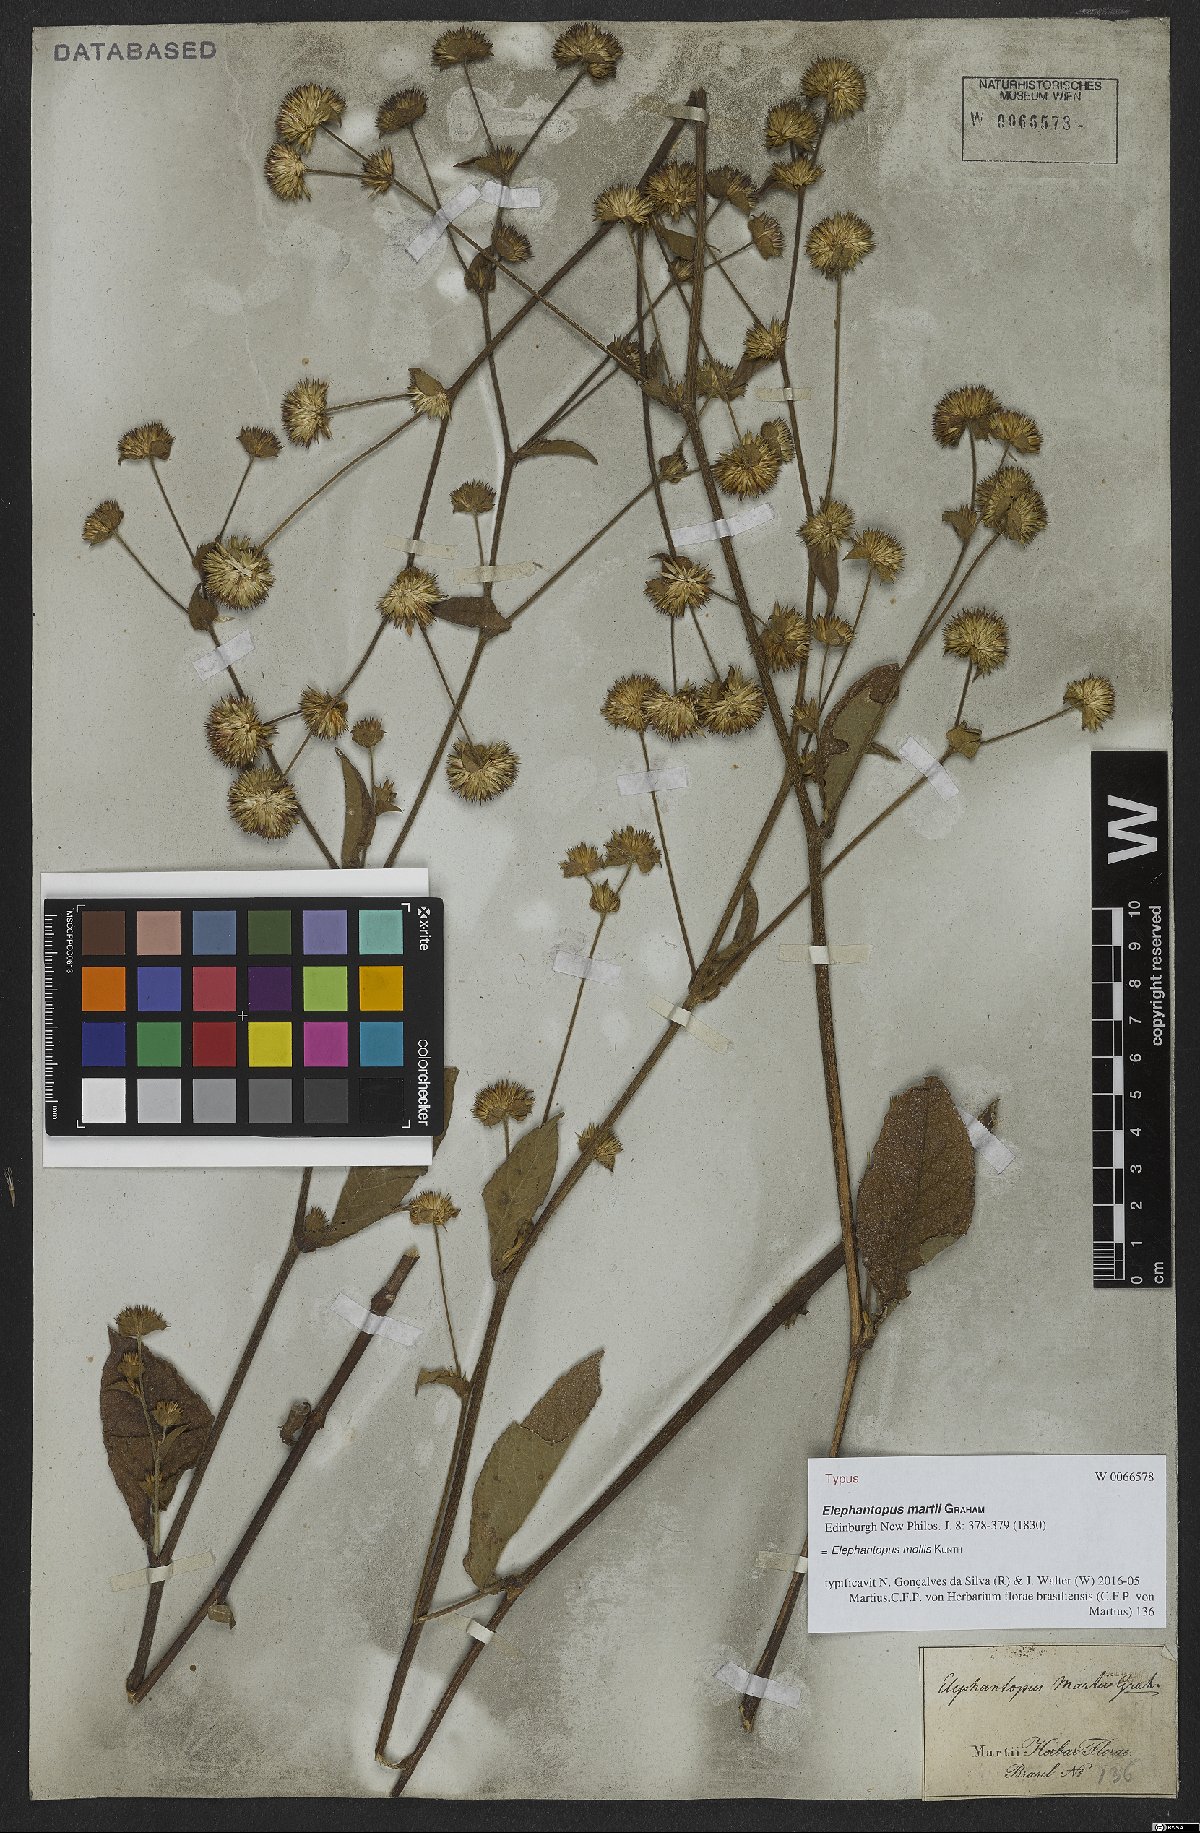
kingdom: Plantae
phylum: Tracheophyta
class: Magnoliopsida
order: Asterales
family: Asteraceae
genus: Elephantopus
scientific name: Elephantopus mollis
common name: Soft elephantsfoot
